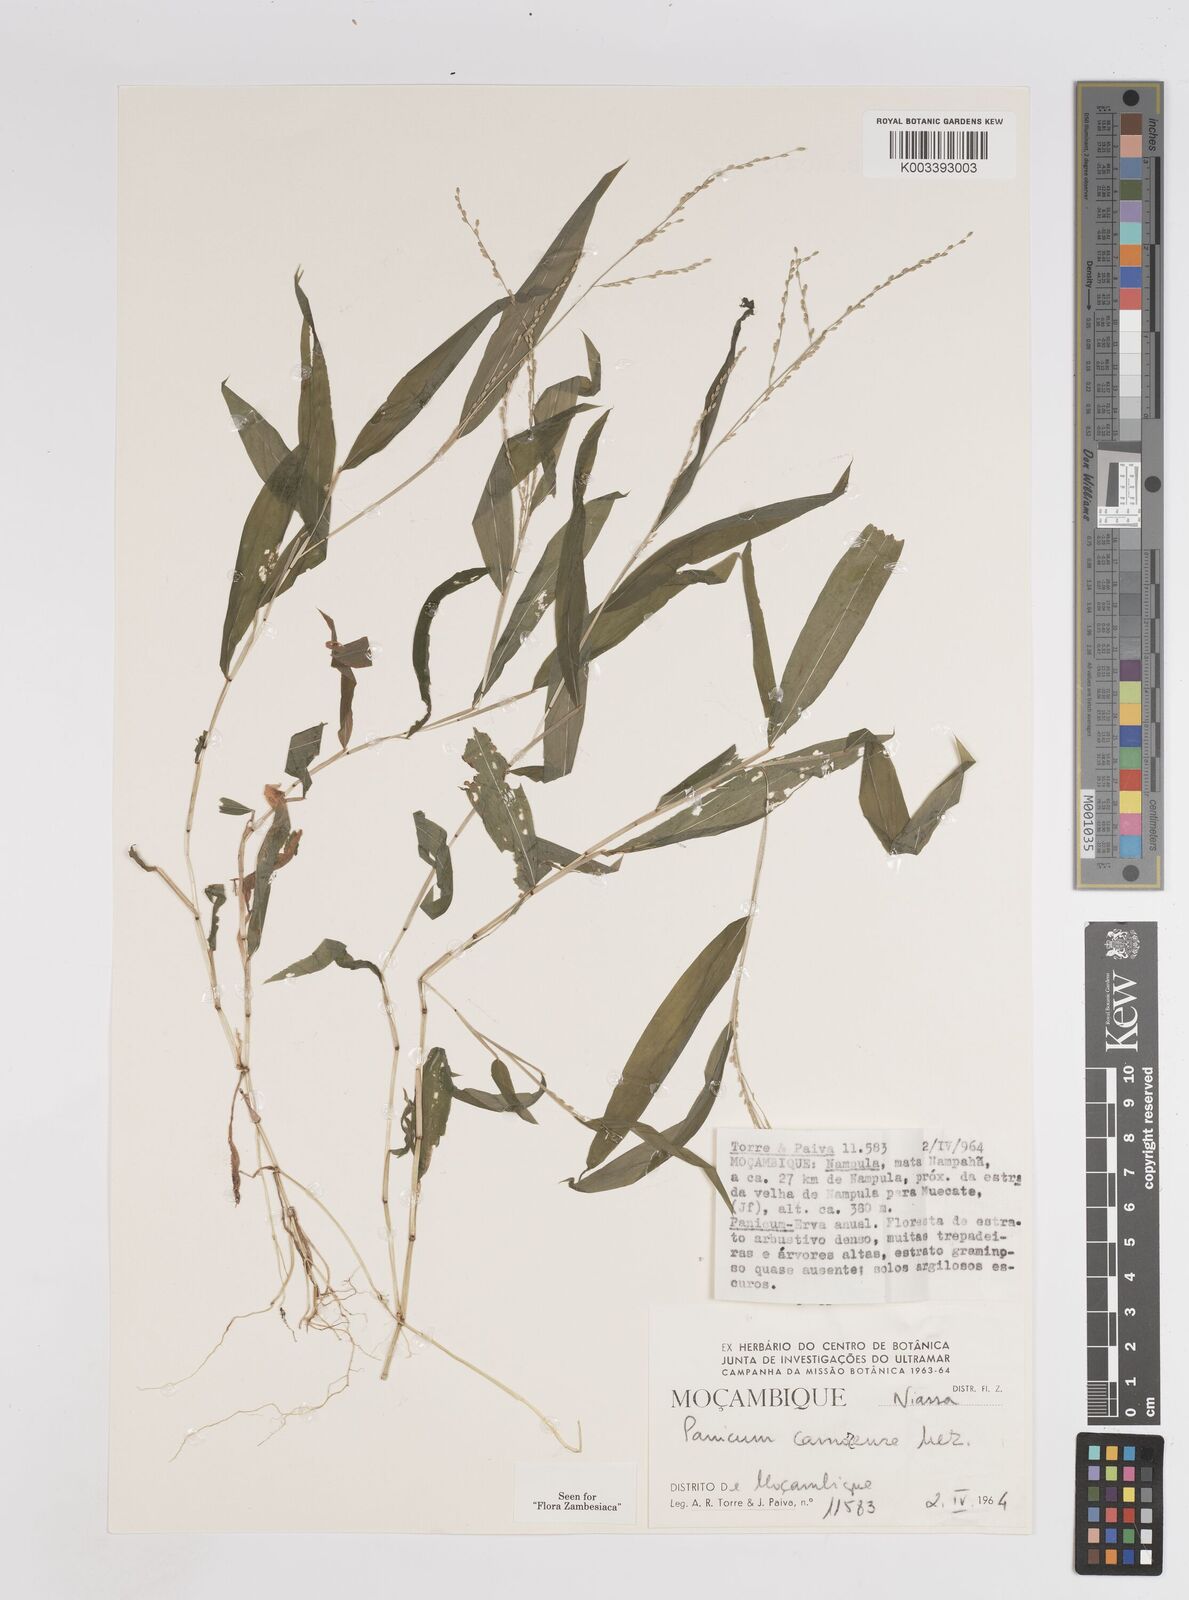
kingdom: Plantae
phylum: Tracheophyta
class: Liliopsida
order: Poales
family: Poaceae
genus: Panicum
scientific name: Panicum comorense
